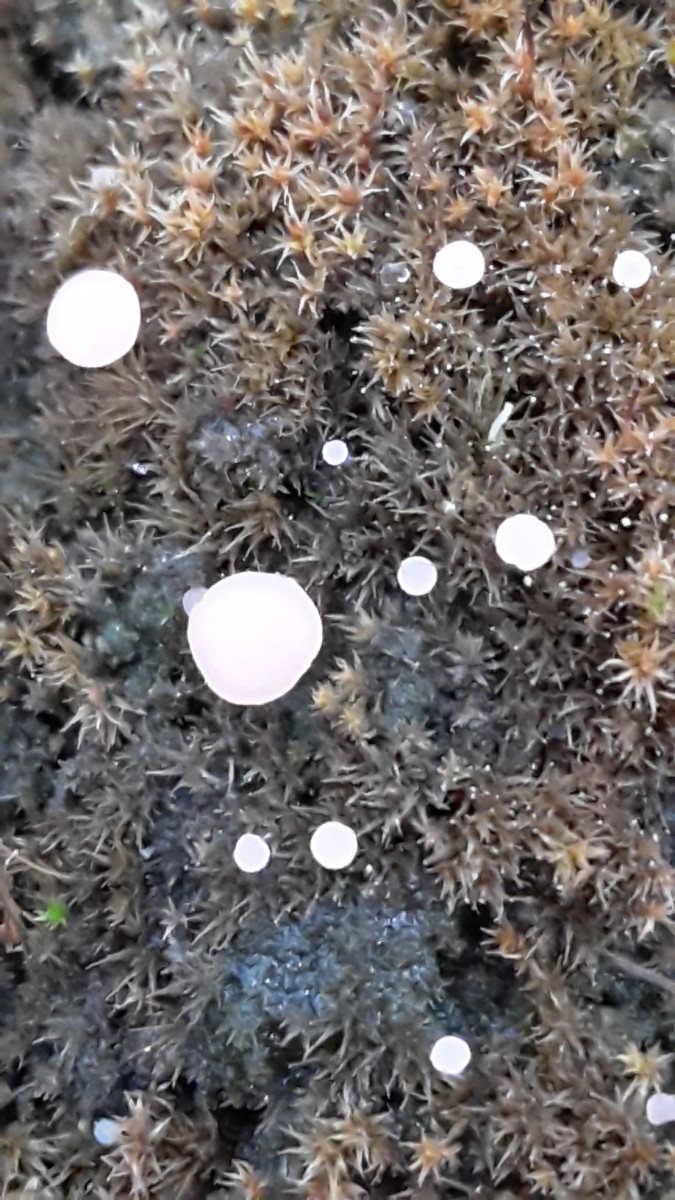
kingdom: Fungi
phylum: Ascomycota
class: Leotiomycetes
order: Helotiales
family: Hyaloscyphaceae
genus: Roseodiscus
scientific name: Roseodiscus formosus
